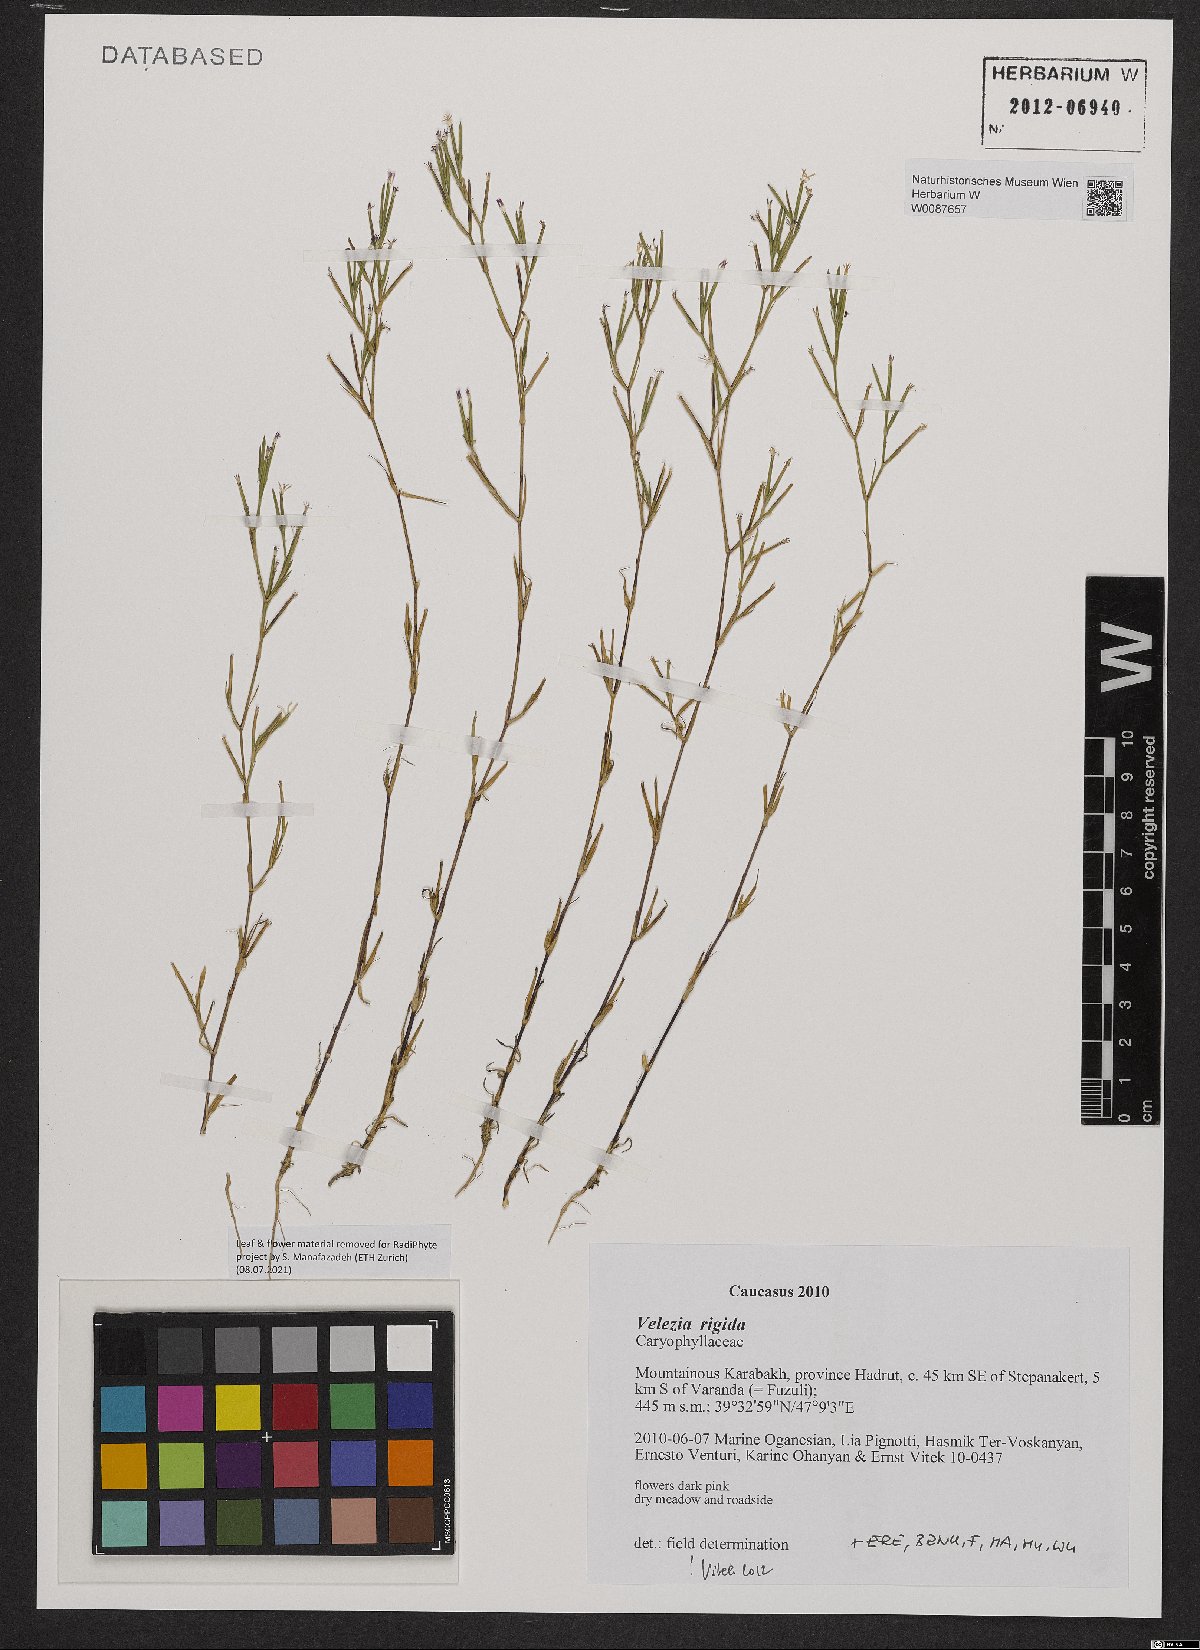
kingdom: Plantae
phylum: Tracheophyta
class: Magnoliopsida
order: Caryophyllales
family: Caryophyllaceae
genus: Dianthus
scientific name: Dianthus nudiflorus
